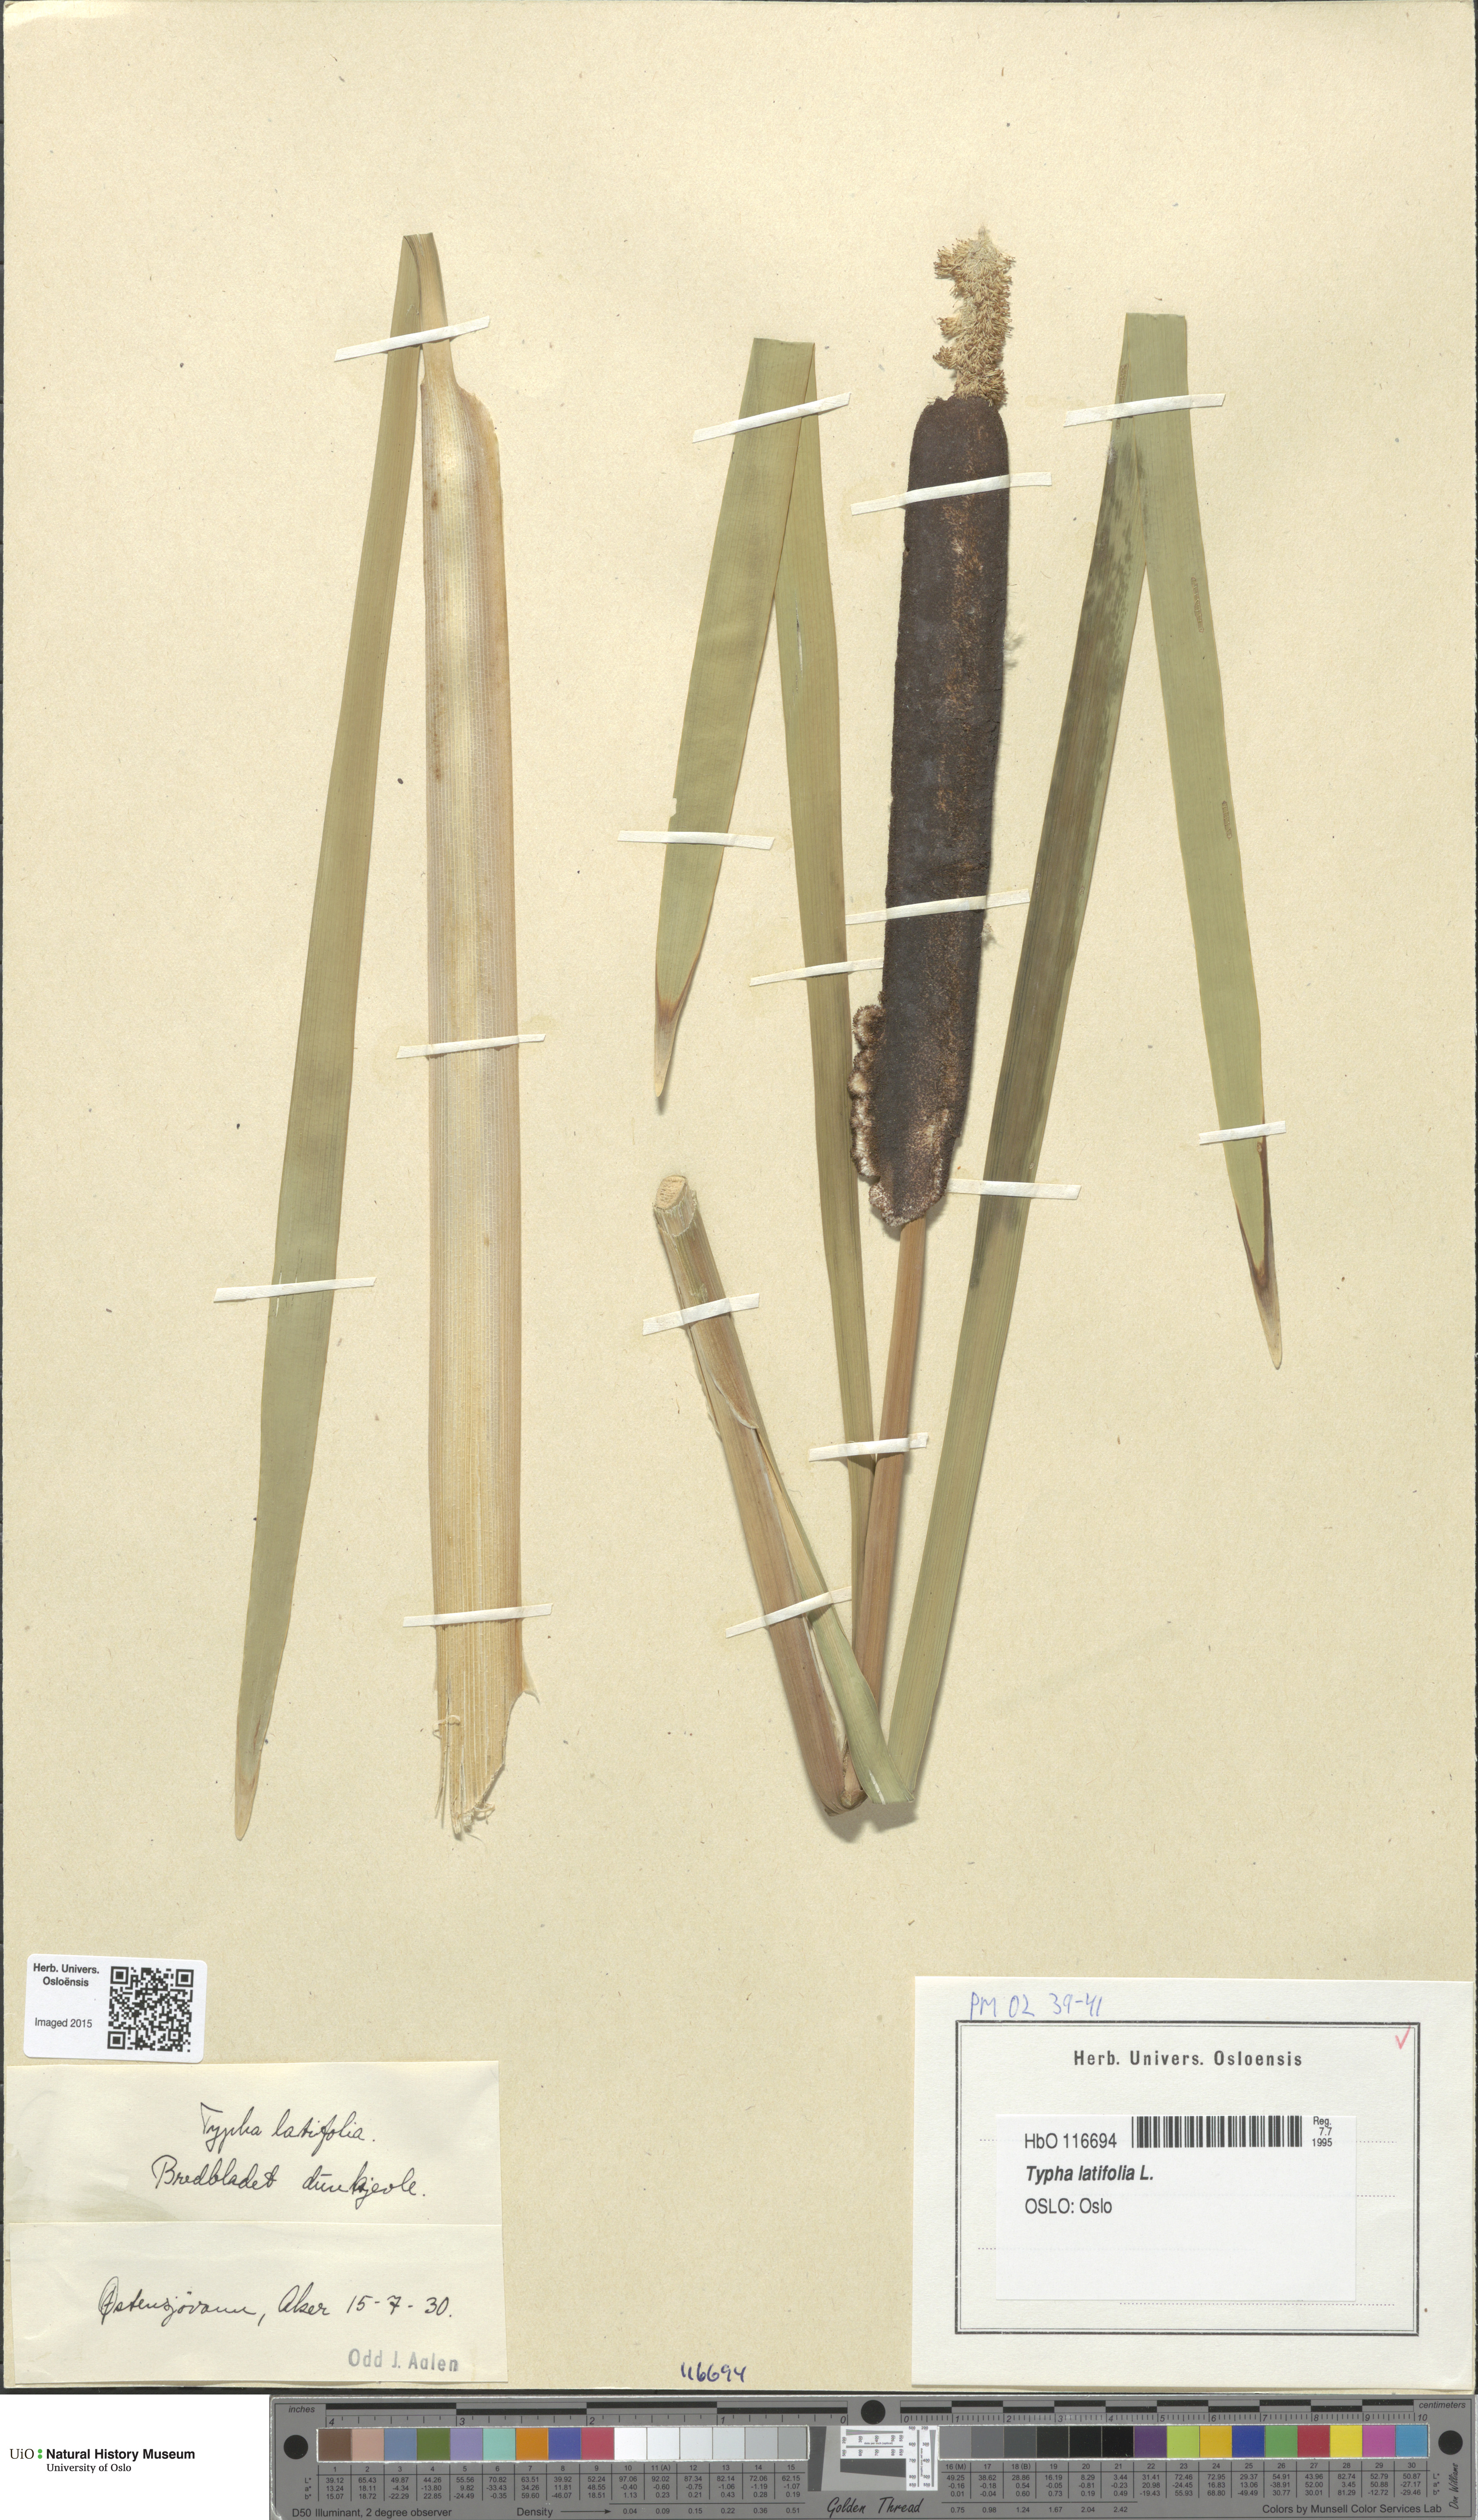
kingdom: Plantae
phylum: Tracheophyta
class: Liliopsida
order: Poales
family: Typhaceae
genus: Typha
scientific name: Typha latifolia
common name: Broadleaf cattail
